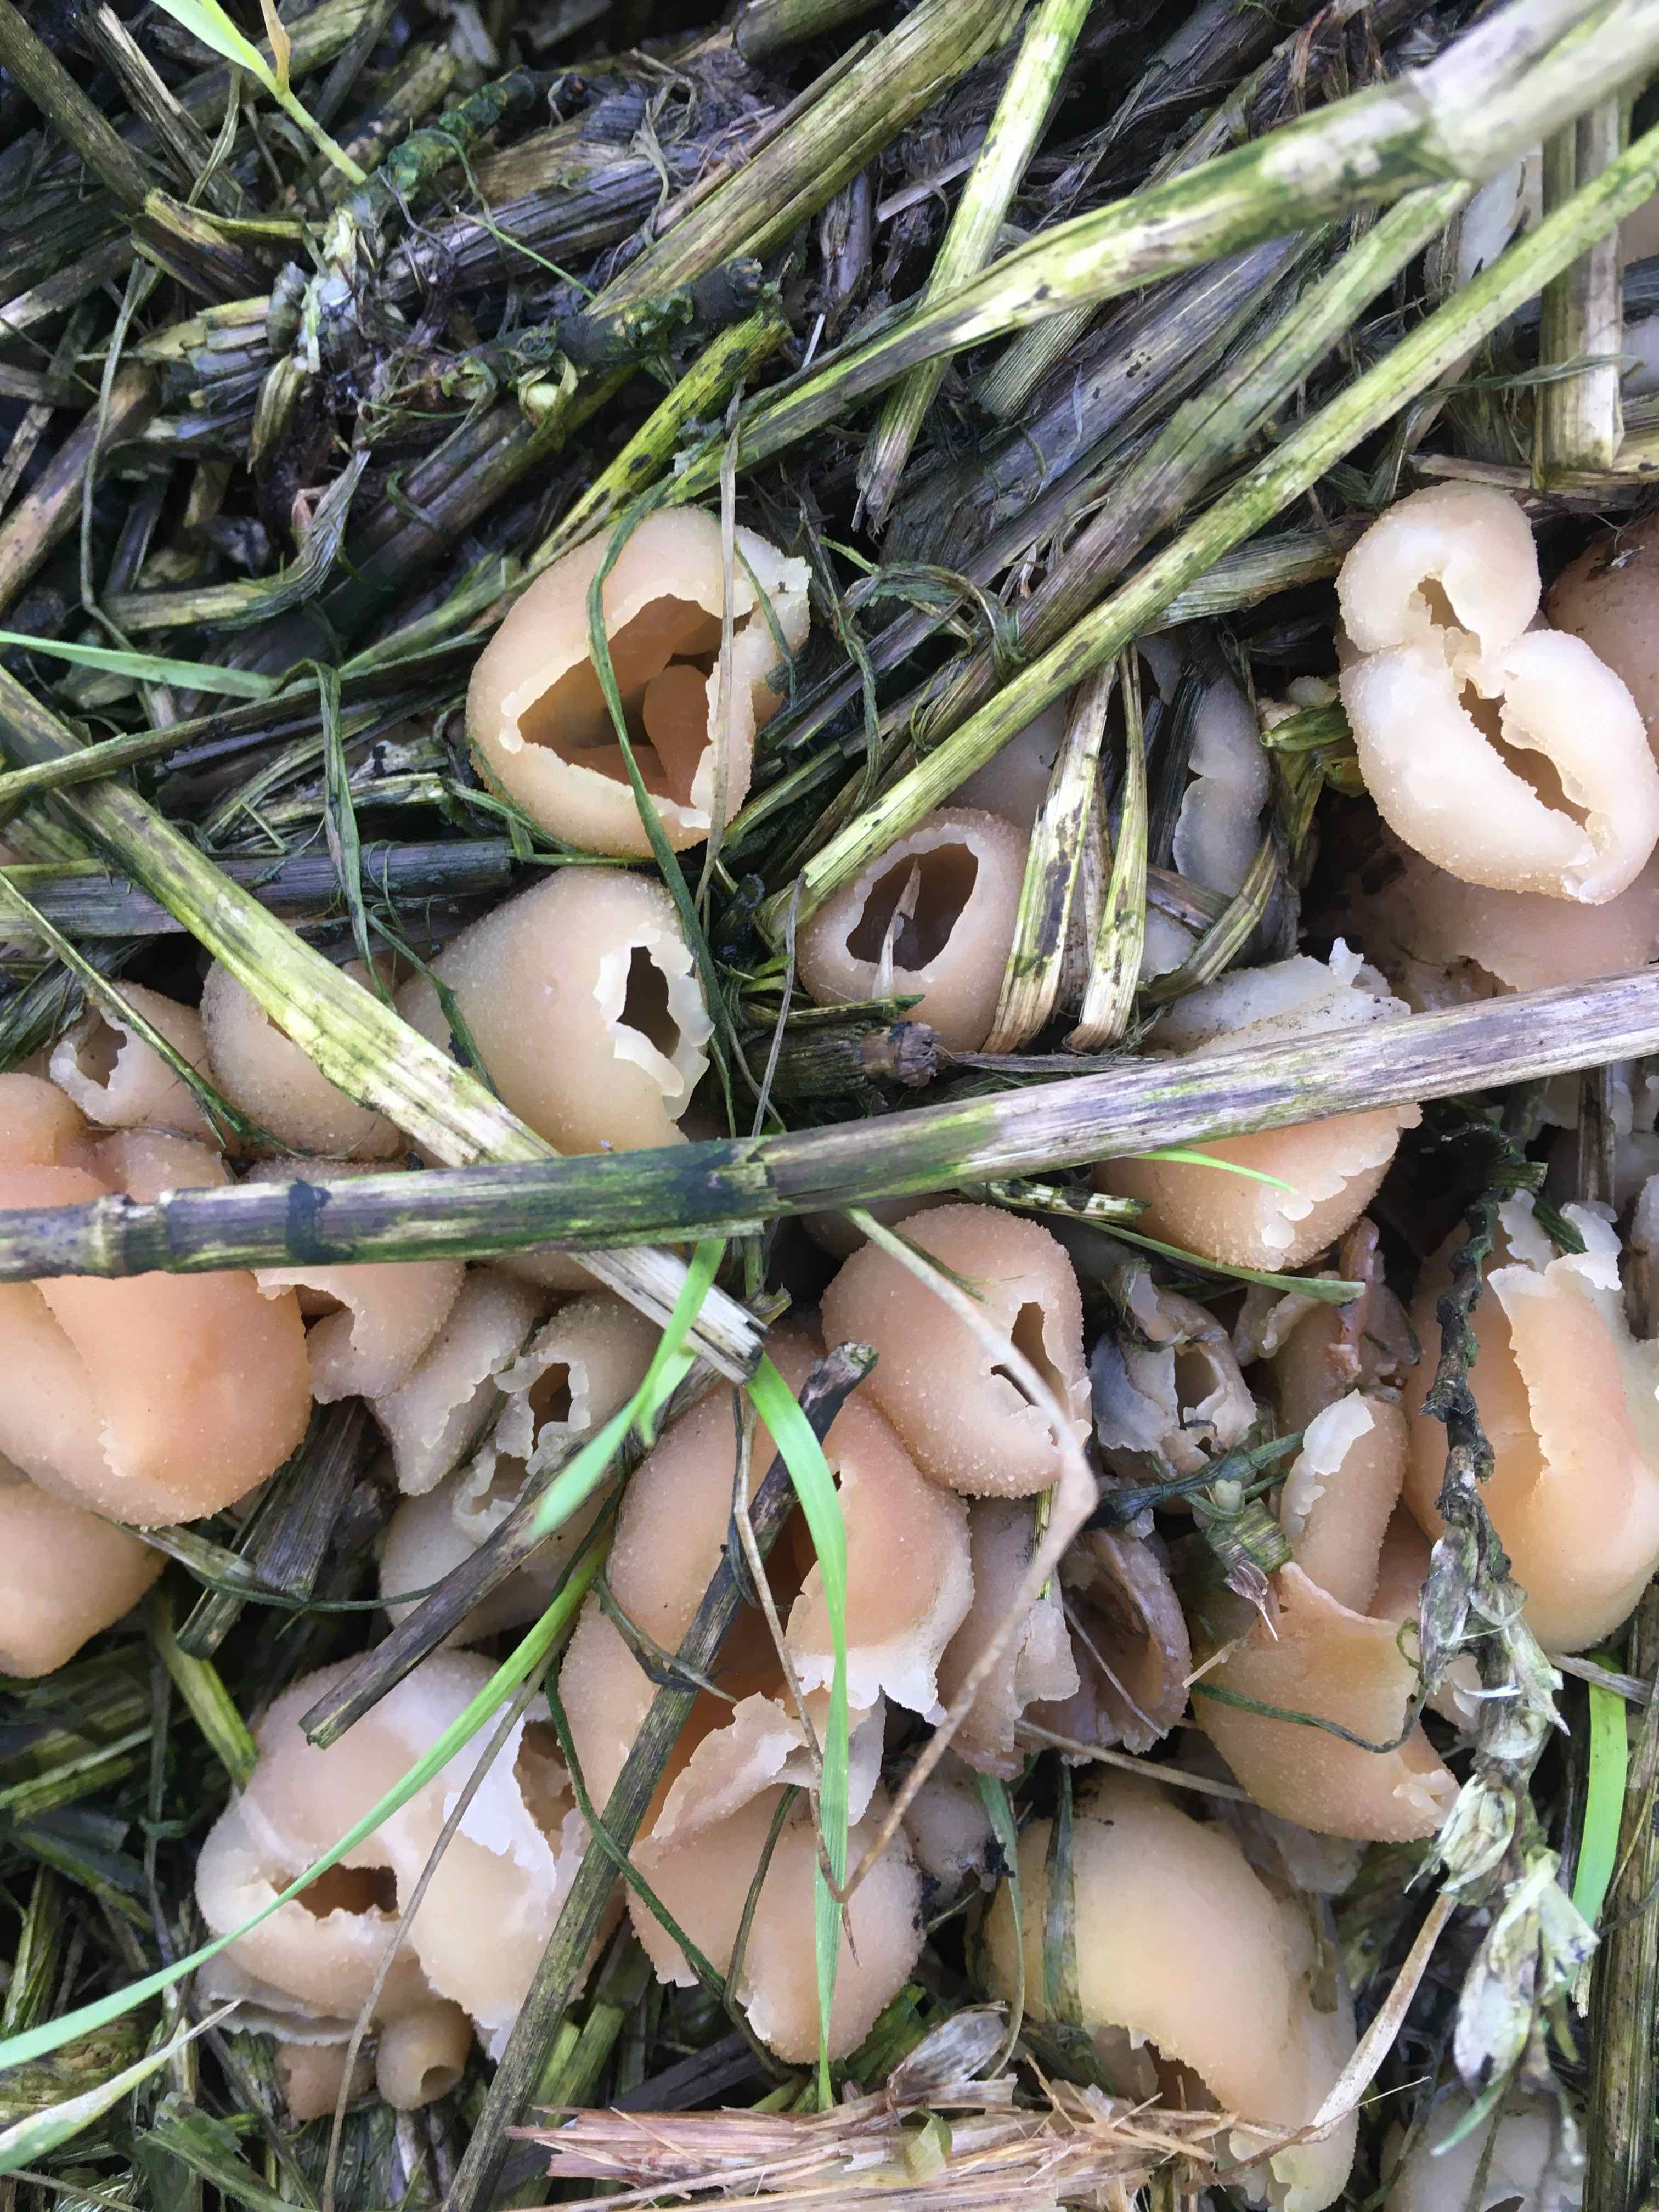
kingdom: Fungi
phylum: Ascomycota
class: Pezizomycetes
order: Pezizales
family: Pezizaceae
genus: Peziza
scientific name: Peziza vesiculosa
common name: blære-bægersvamp
